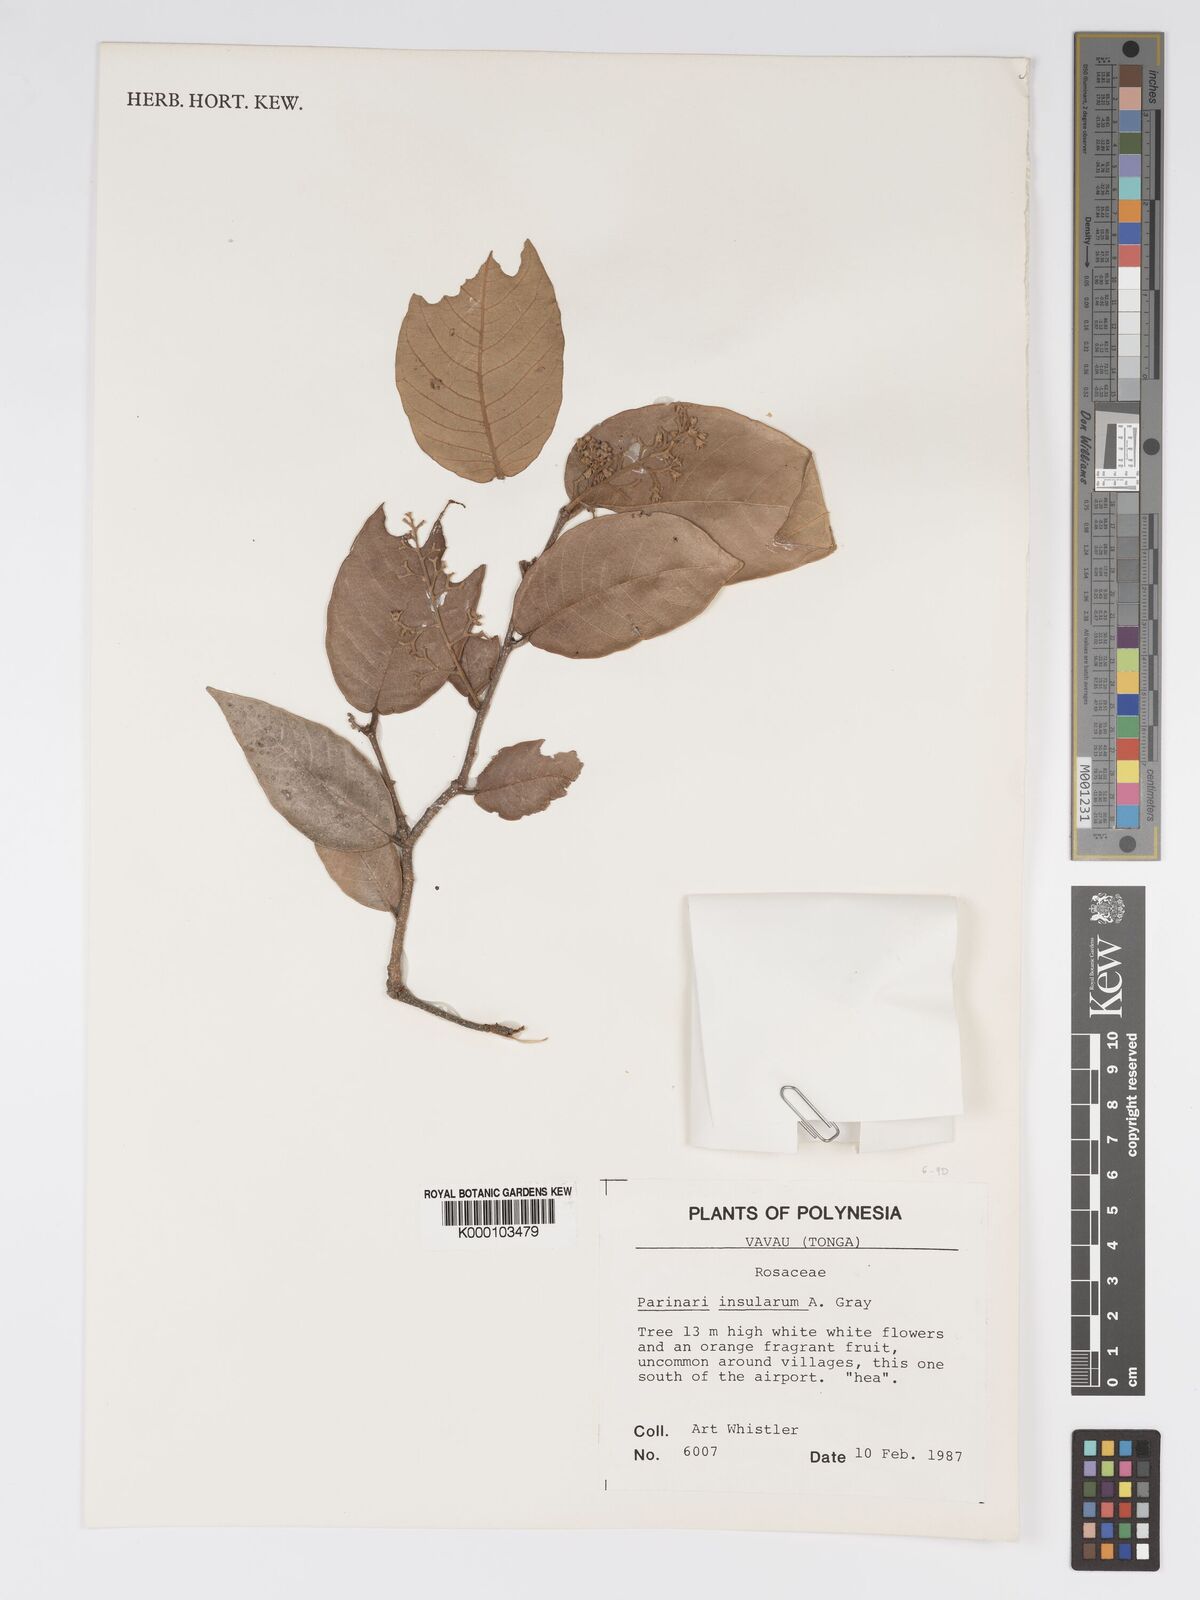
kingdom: Plantae
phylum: Tracheophyta
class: Magnoliopsida
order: Malpighiales
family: Chrysobalanaceae
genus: Parinari
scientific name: Parinari insularum
